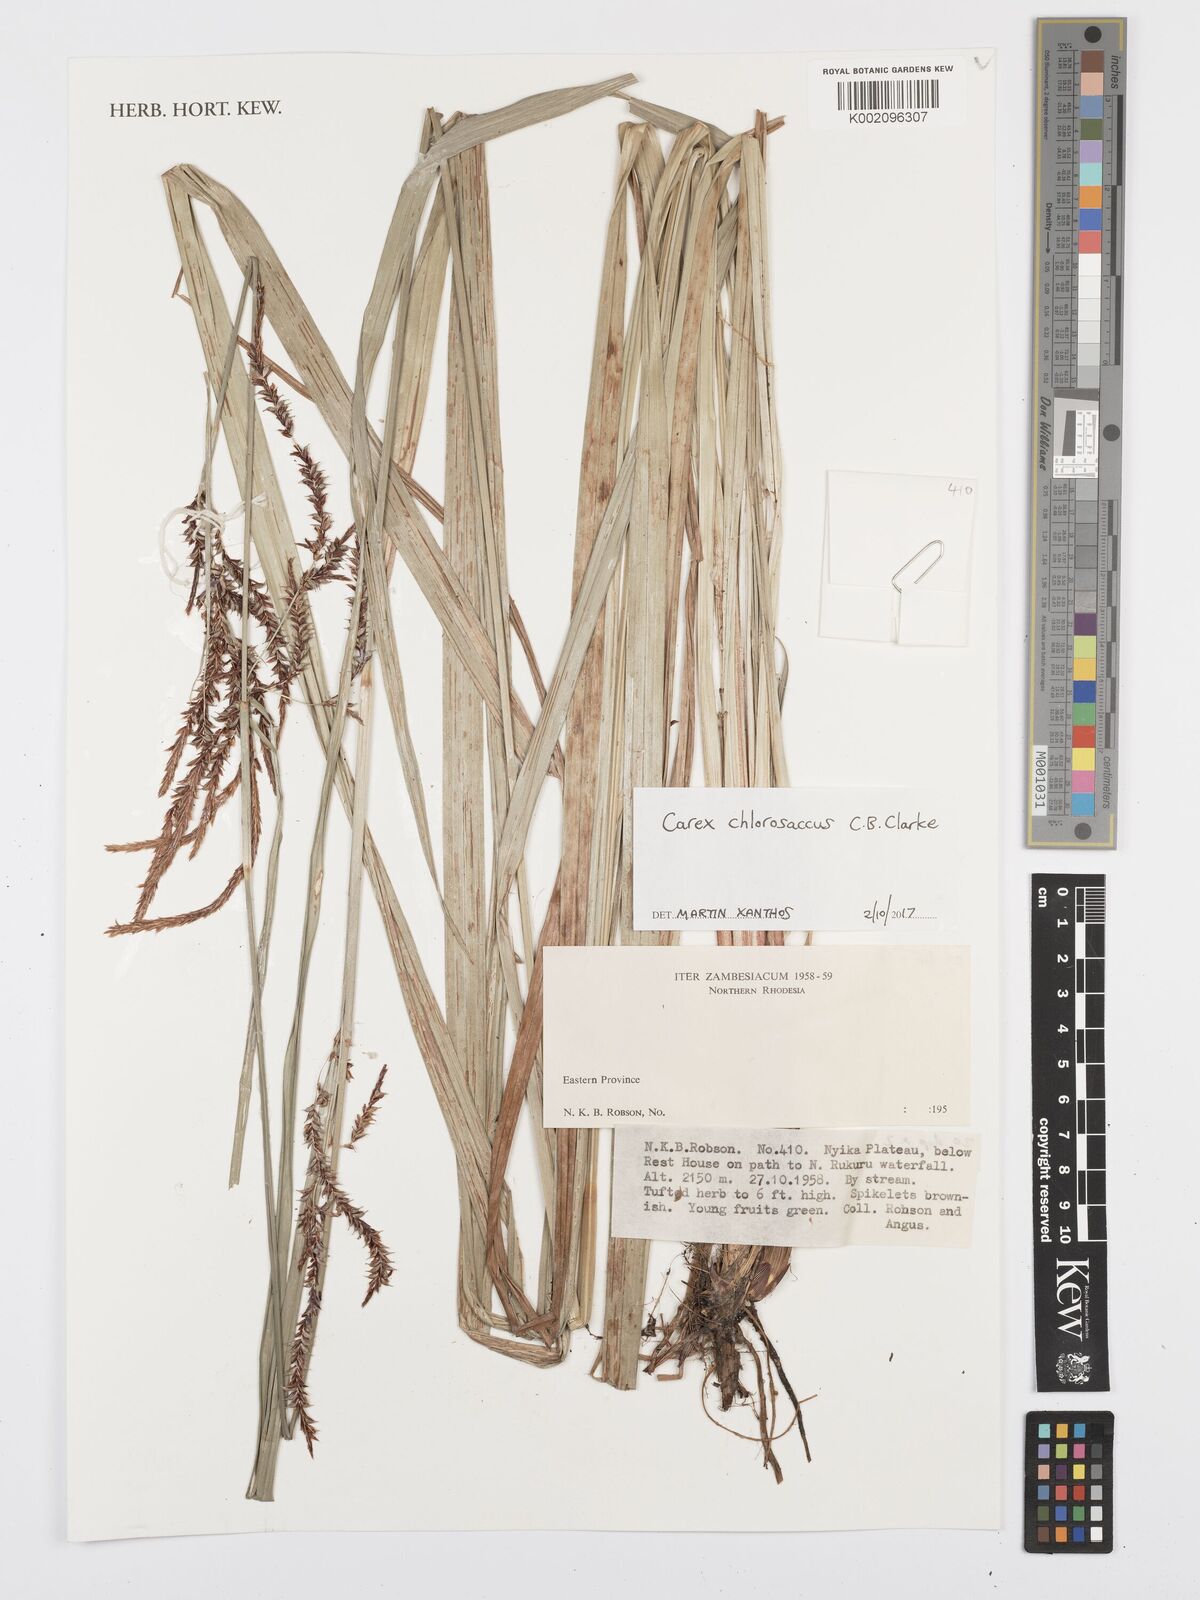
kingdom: Plantae
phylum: Tracheophyta
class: Liliopsida
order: Poales
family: Cyperaceae
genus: Carex
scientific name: Carex chlorosaccus
